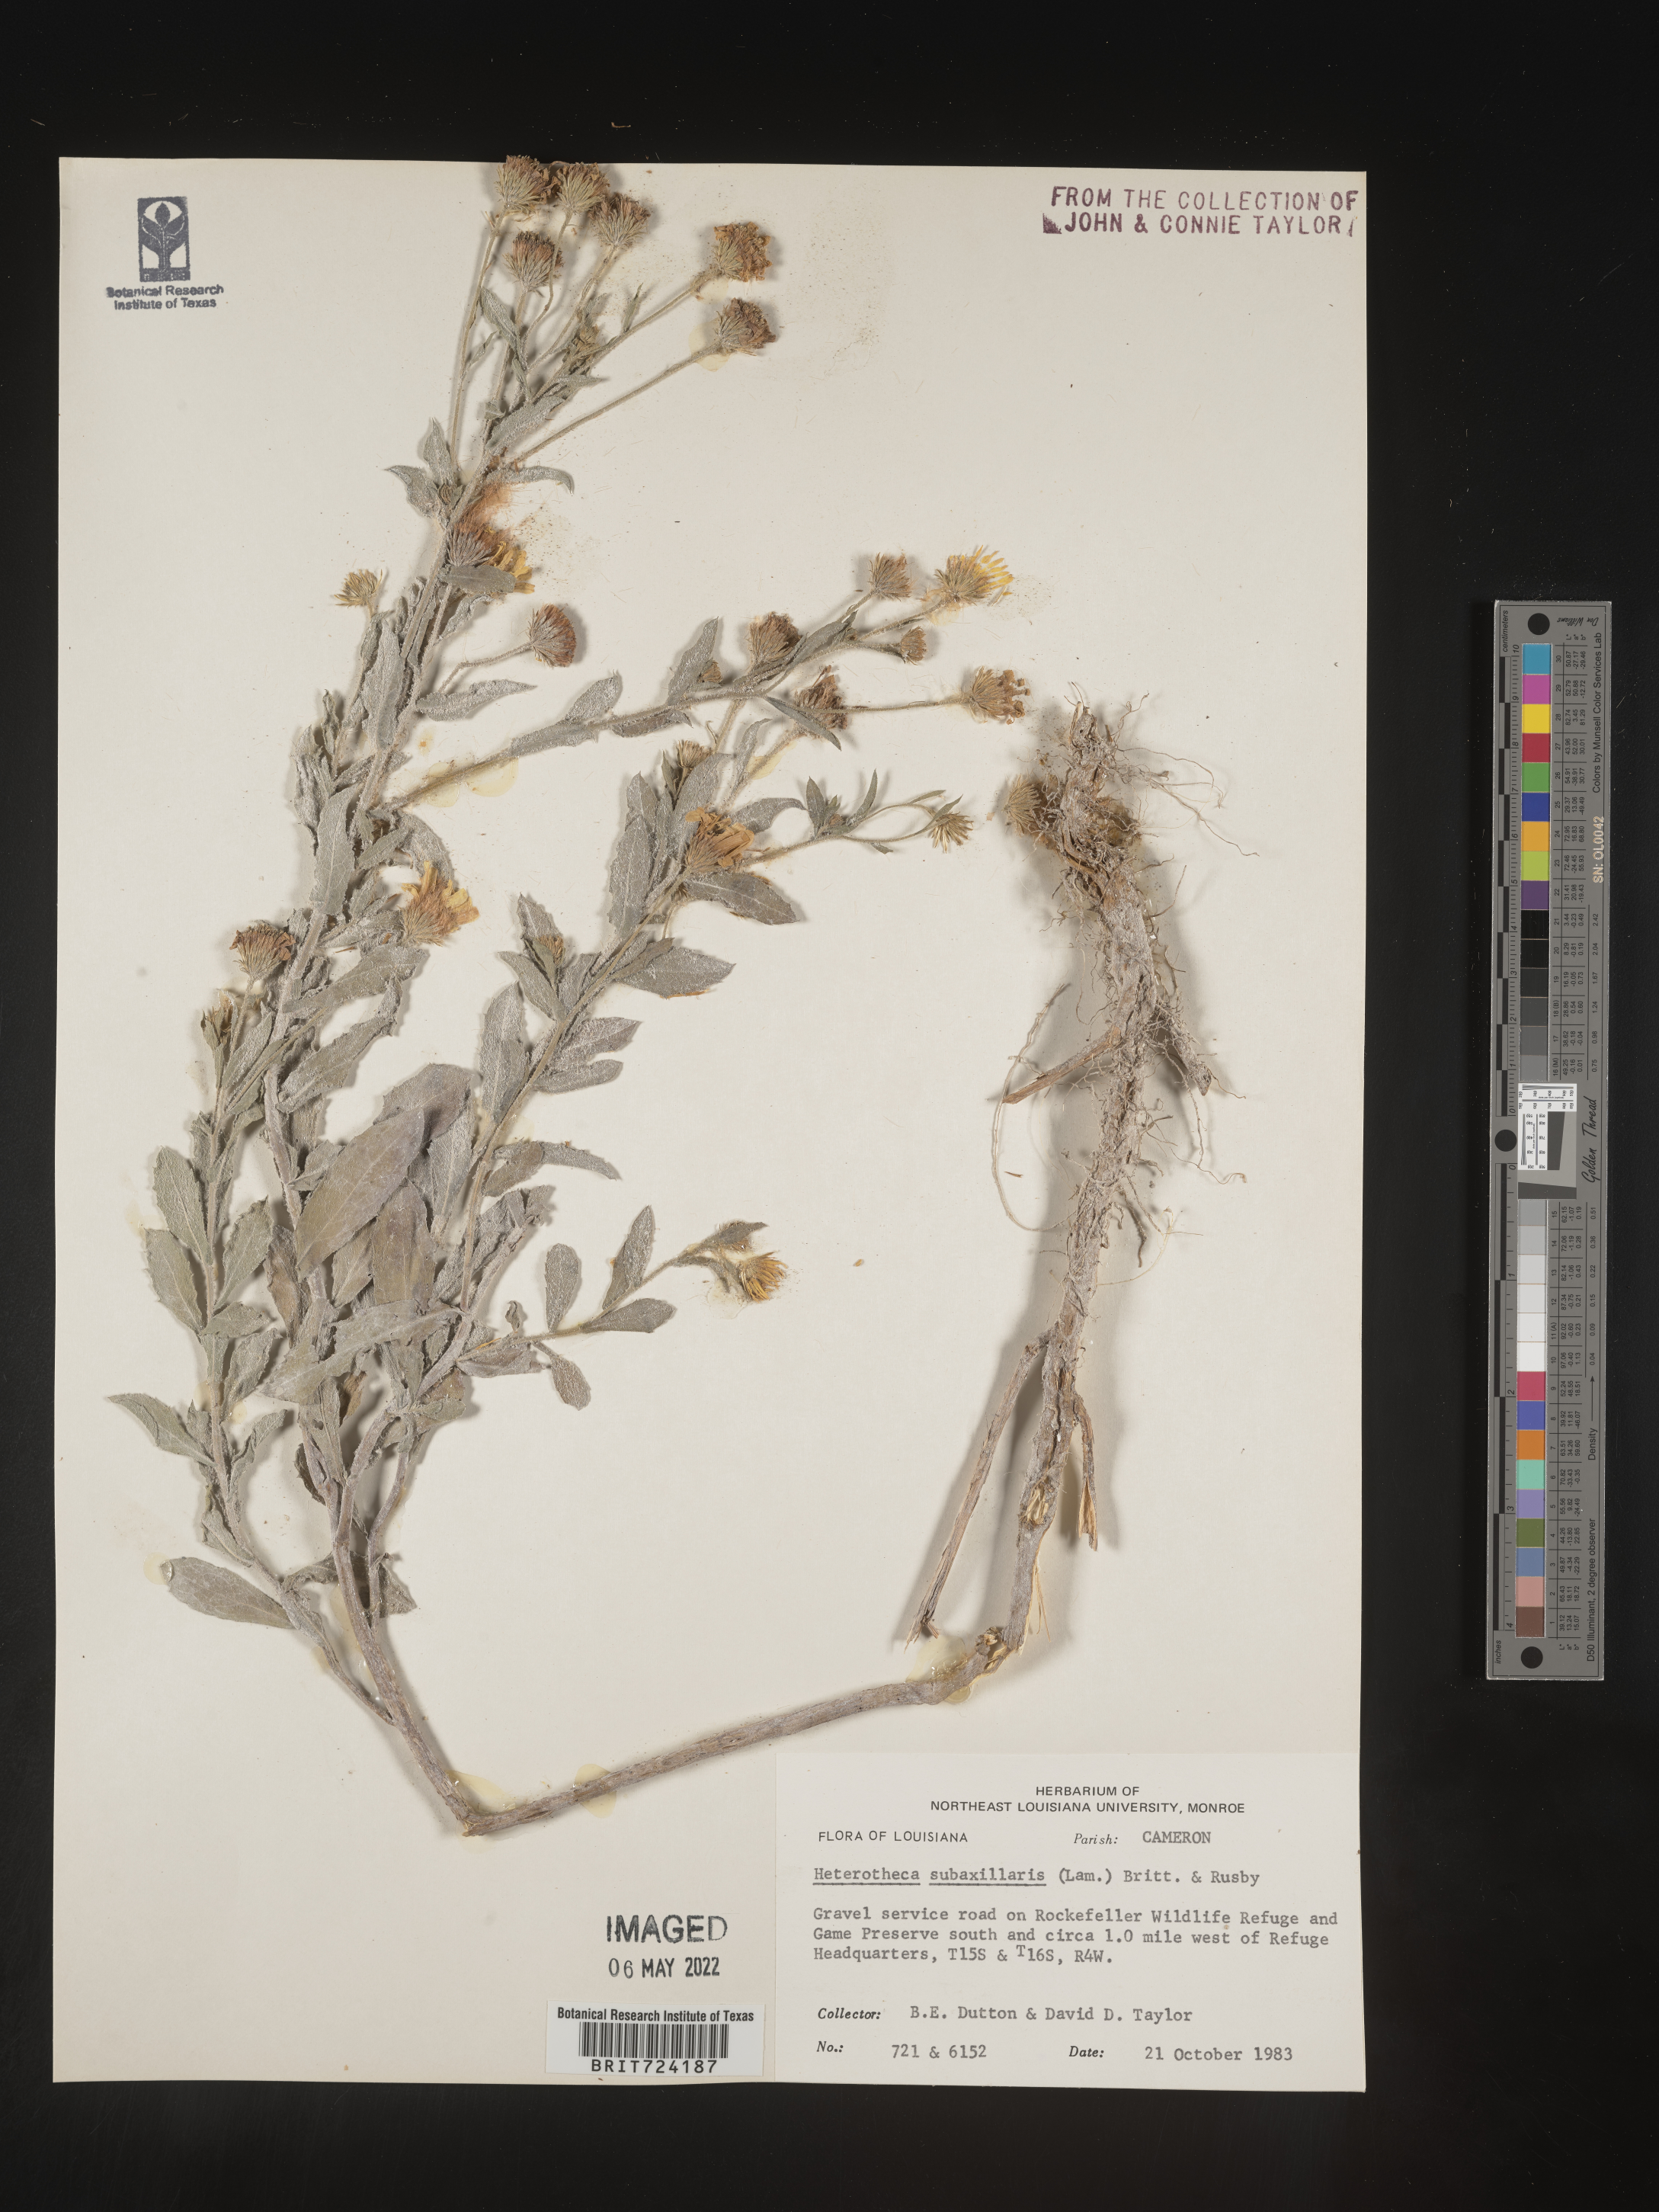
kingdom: Plantae
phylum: Tracheophyta
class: Magnoliopsida
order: Asterales
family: Asteraceae
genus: Heterotheca
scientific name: Heterotheca subaxillaris
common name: Camphorweed
